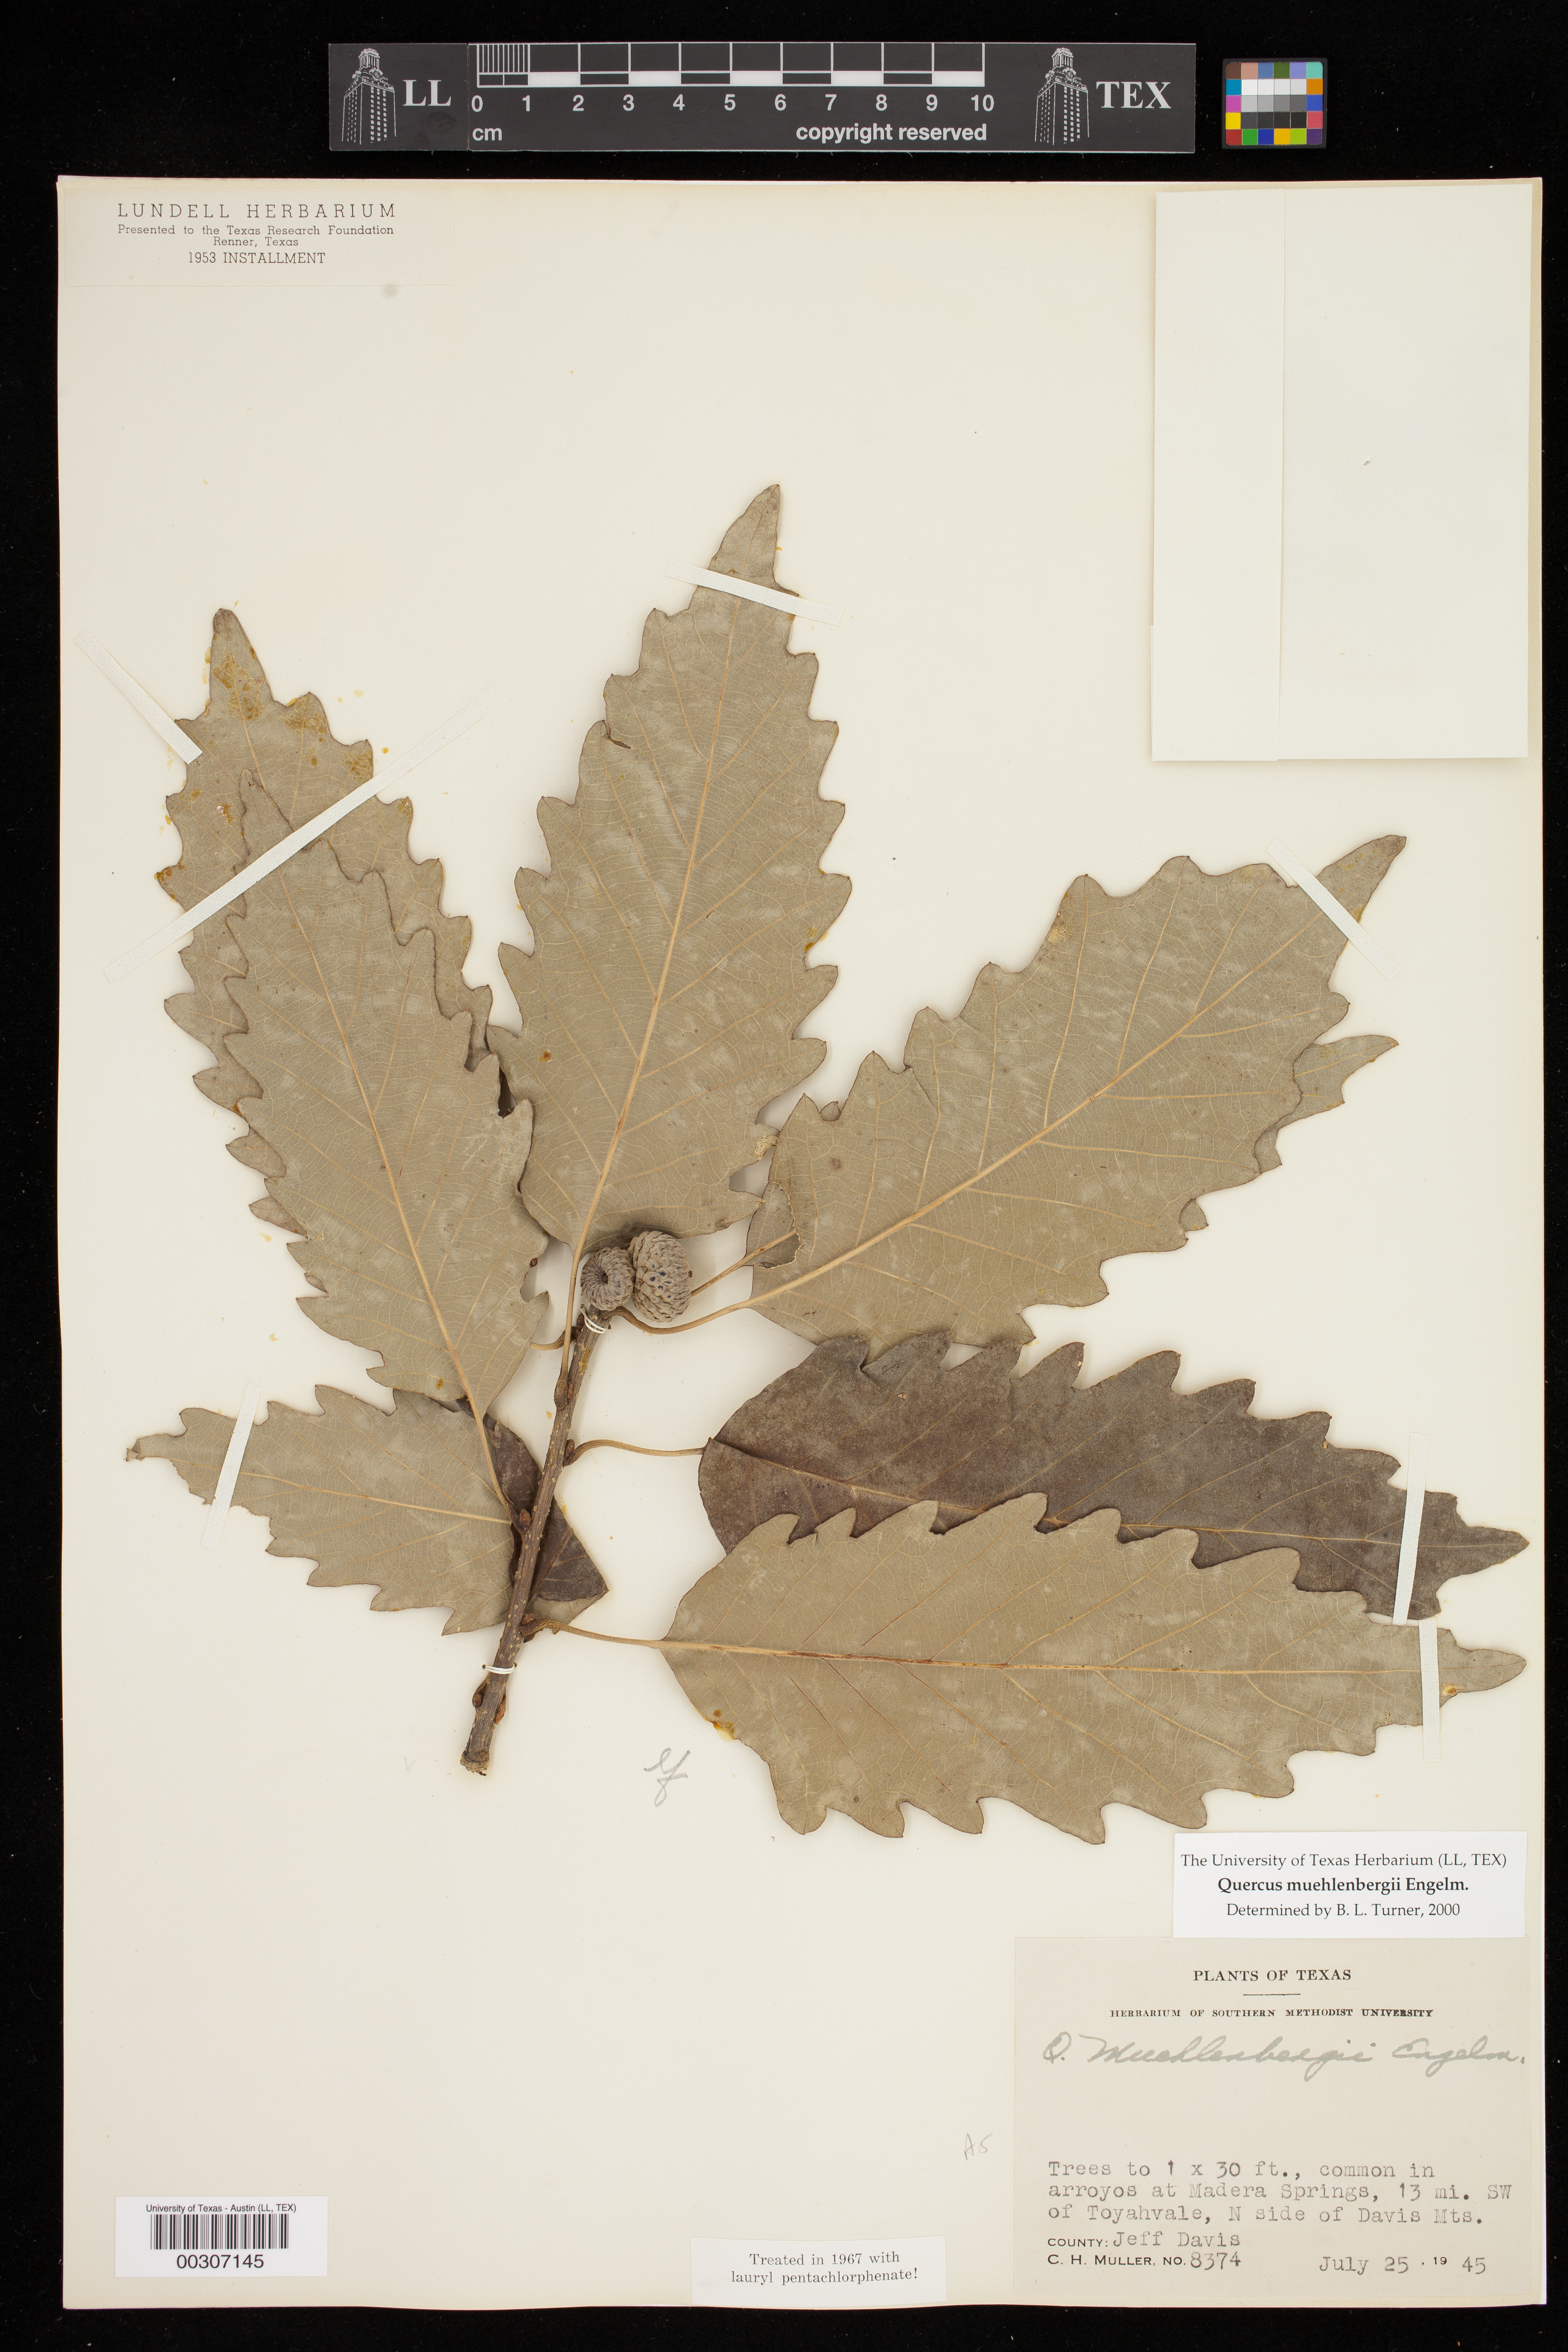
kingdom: Plantae
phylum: Tracheophyta
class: Magnoliopsida
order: Fagales
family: Fagaceae
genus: Quercus
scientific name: Quercus muehlenbergii
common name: Chinkapin oak
